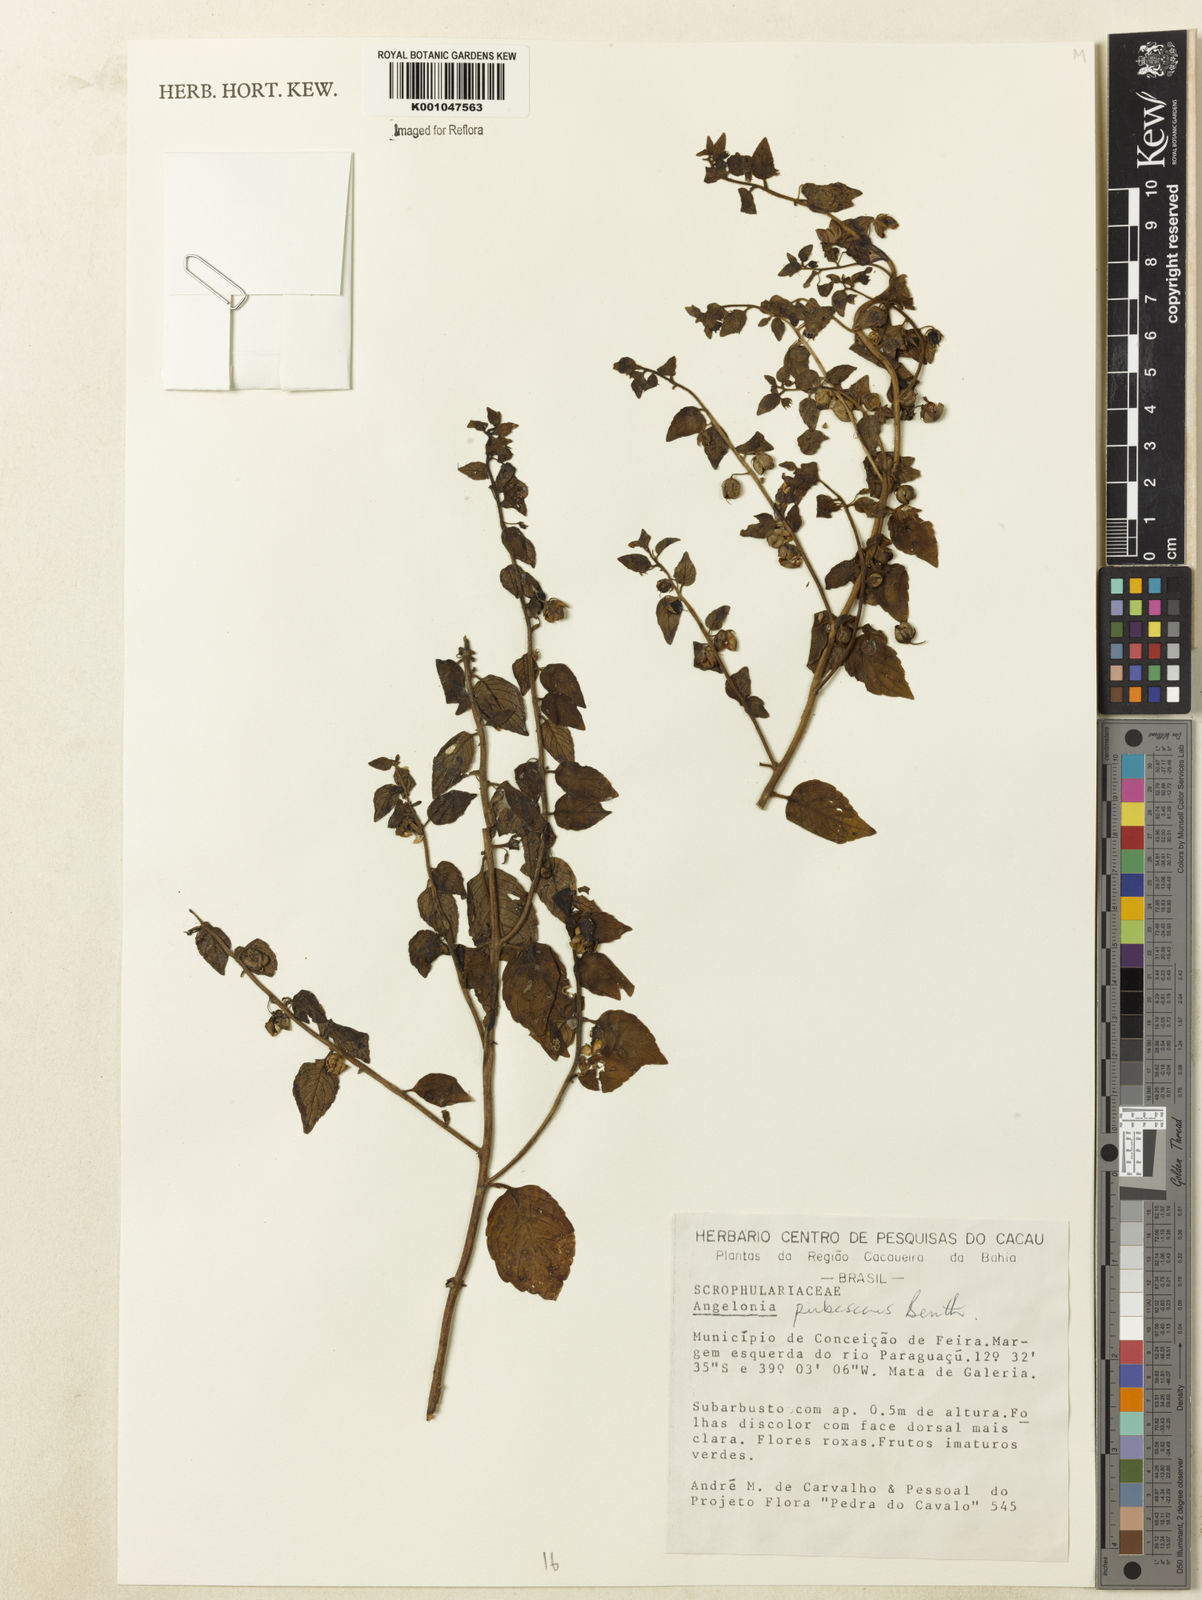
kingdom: Plantae
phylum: Tracheophyta
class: Magnoliopsida
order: Lamiales
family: Plantaginaceae
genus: Angelonia
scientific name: Angelonia pubescens
